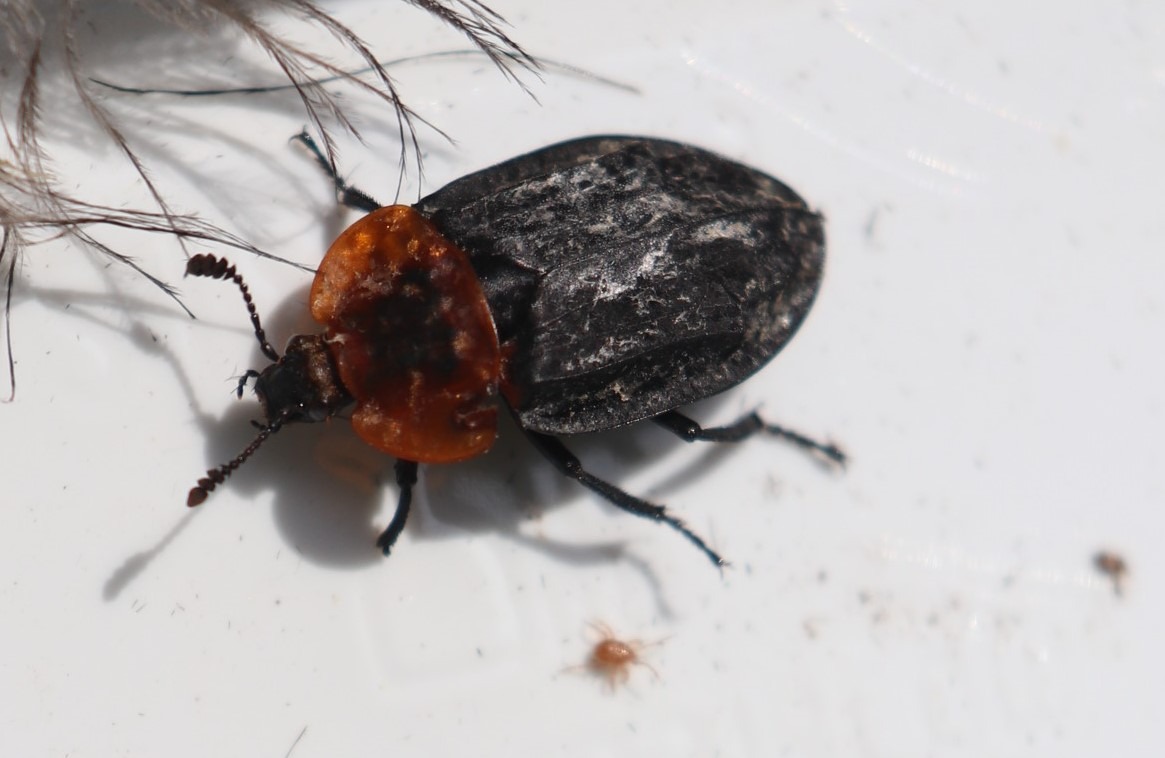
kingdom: Animalia
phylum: Arthropoda
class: Insecta
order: Coleoptera
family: Staphylinidae
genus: Oiceoptoma
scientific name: Oiceoptoma thoracicum
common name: Rødbrystet ådselbille
